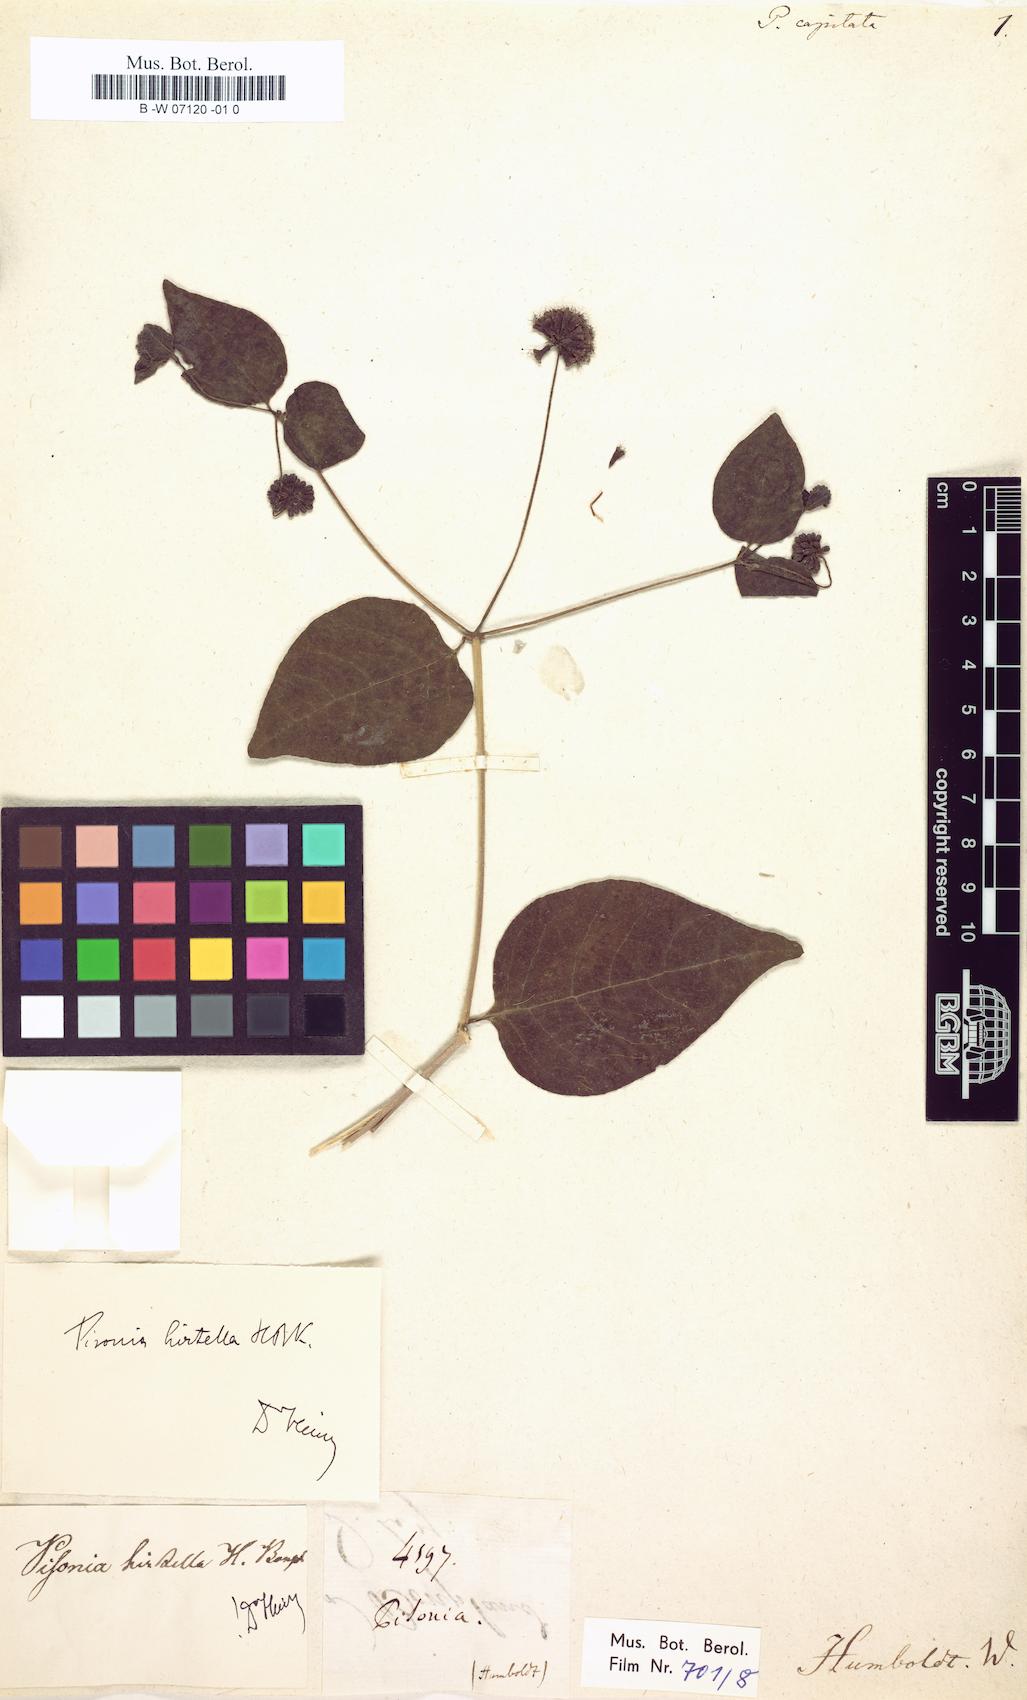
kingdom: Plantae
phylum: Tracheophyta
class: Magnoliopsida
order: Caryophyllales
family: Nyctaginaceae
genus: Pisonia
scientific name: Pisonia capitata
